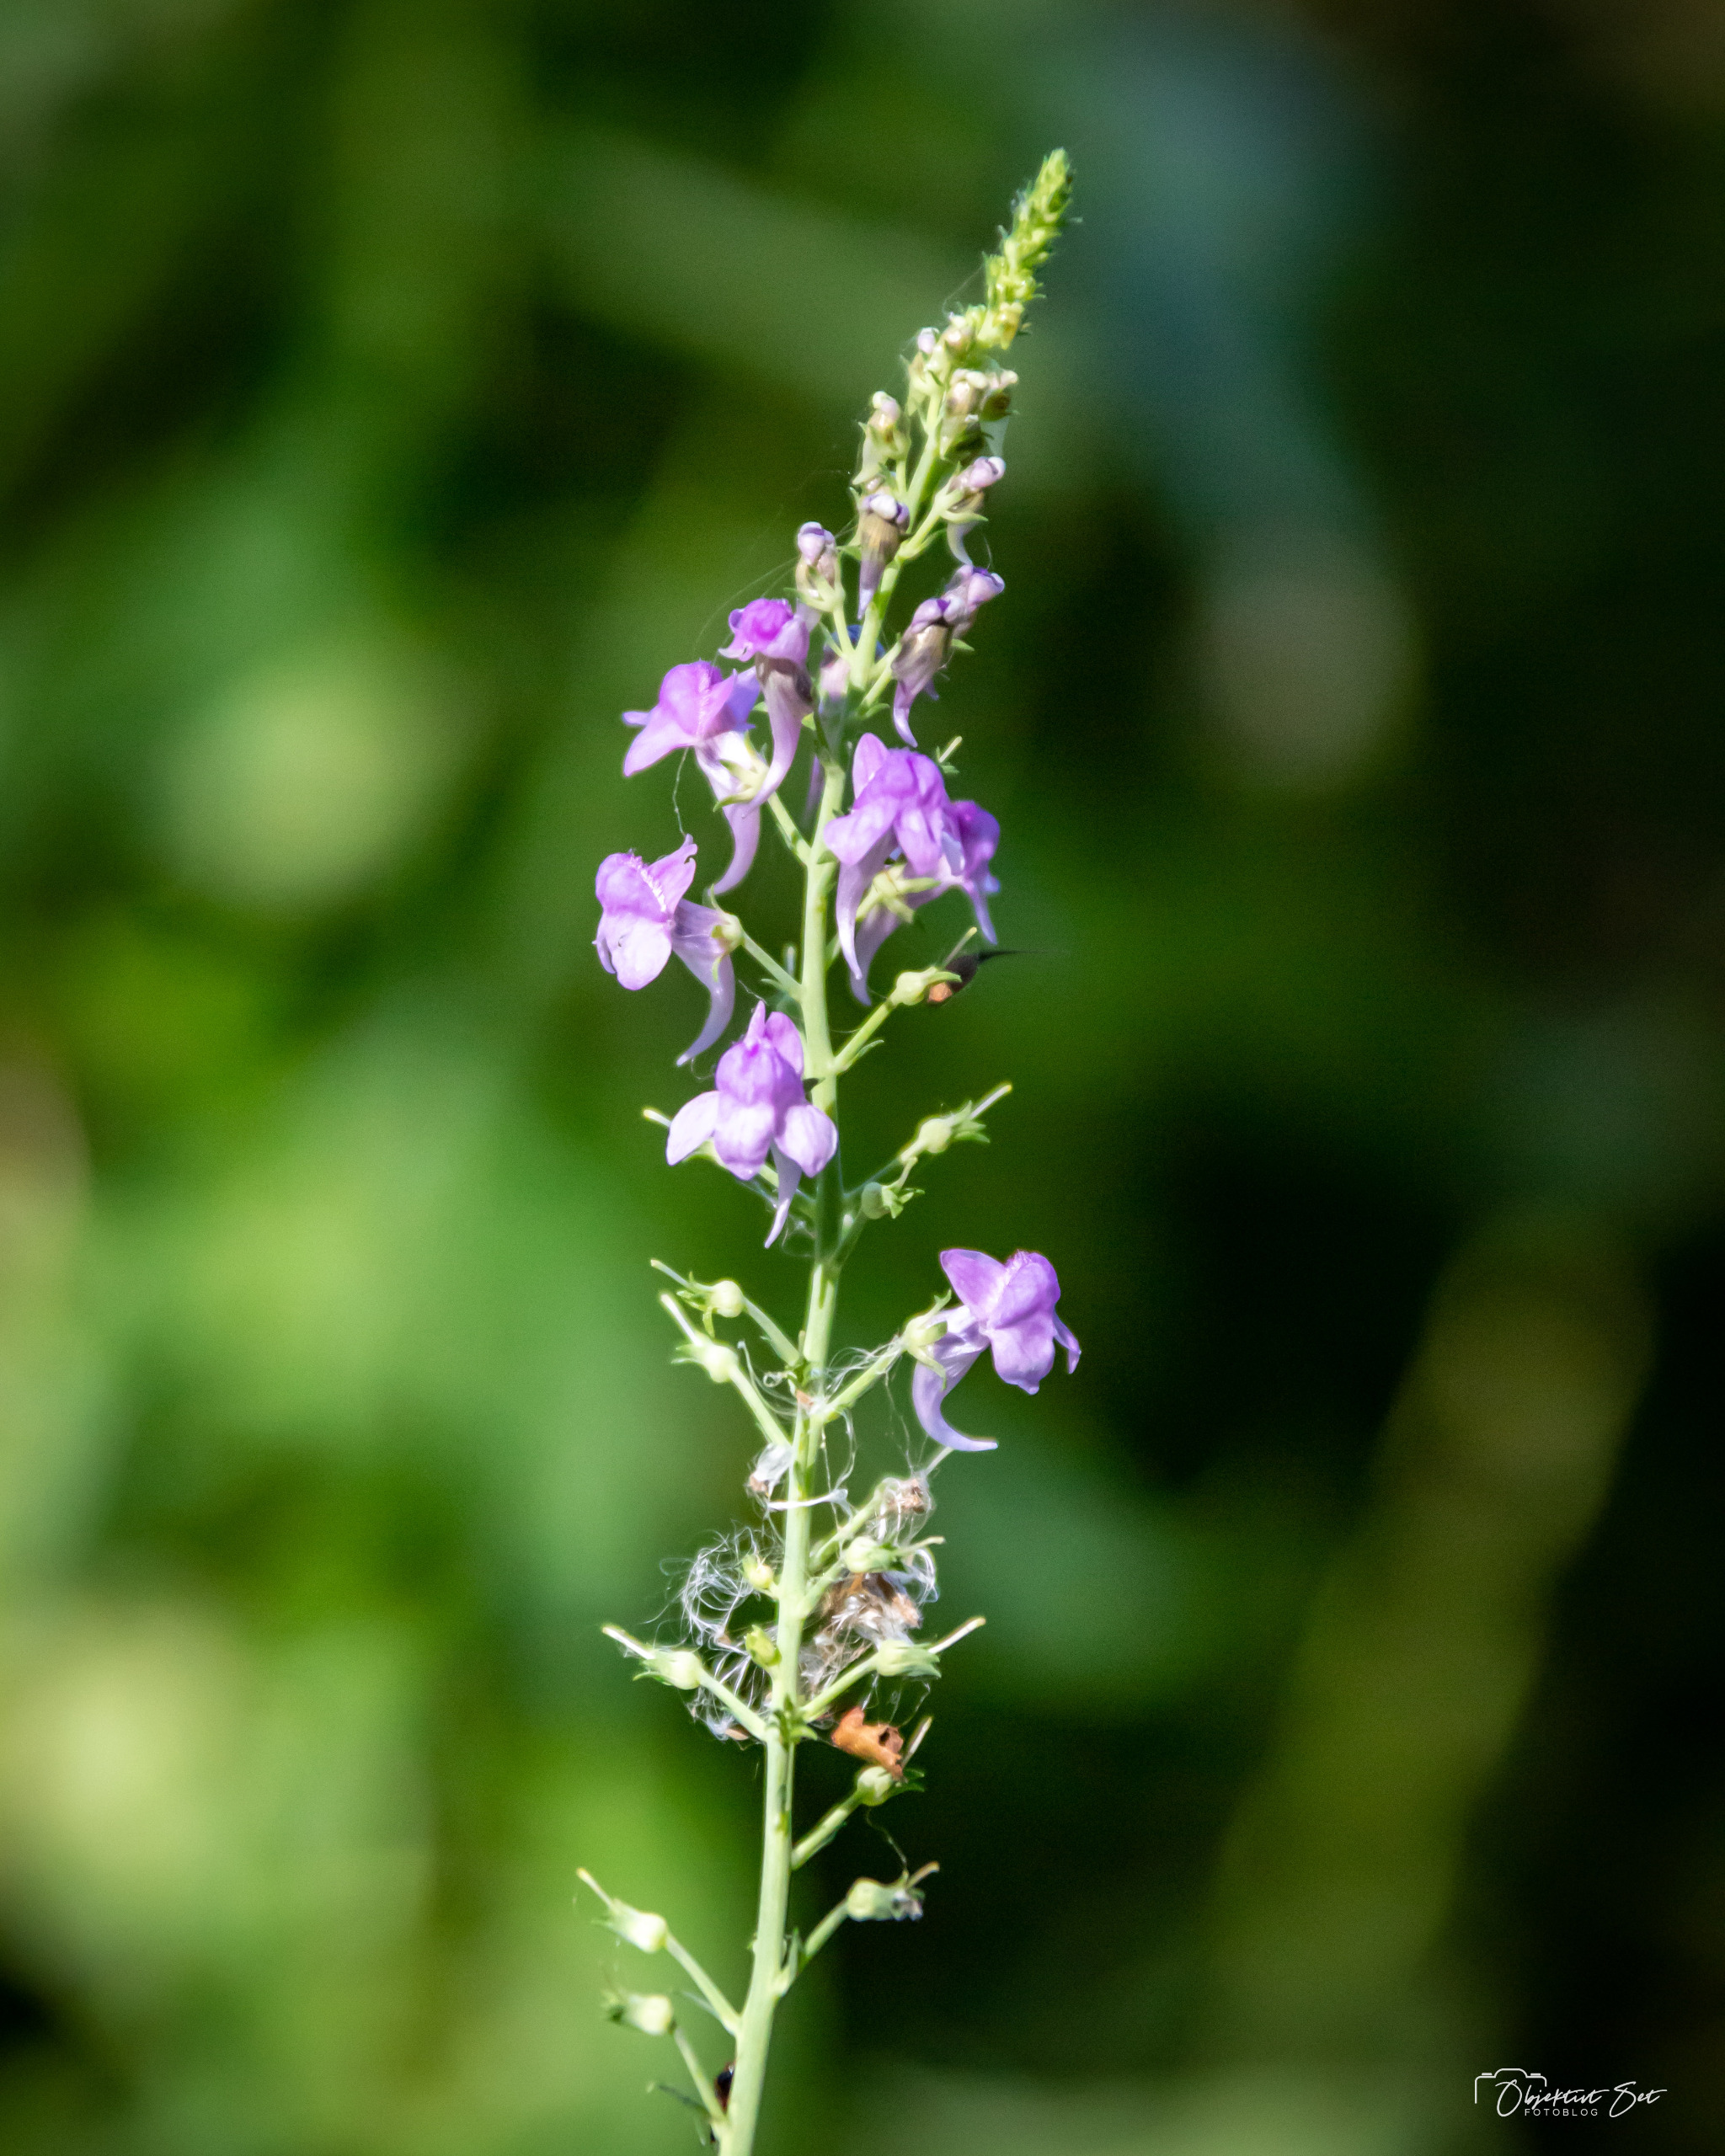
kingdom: Plantae
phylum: Tracheophyta
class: Magnoliopsida
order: Lamiales
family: Plantaginaceae
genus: Linaria
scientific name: Linaria purpurea
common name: Purpur-torskemund
